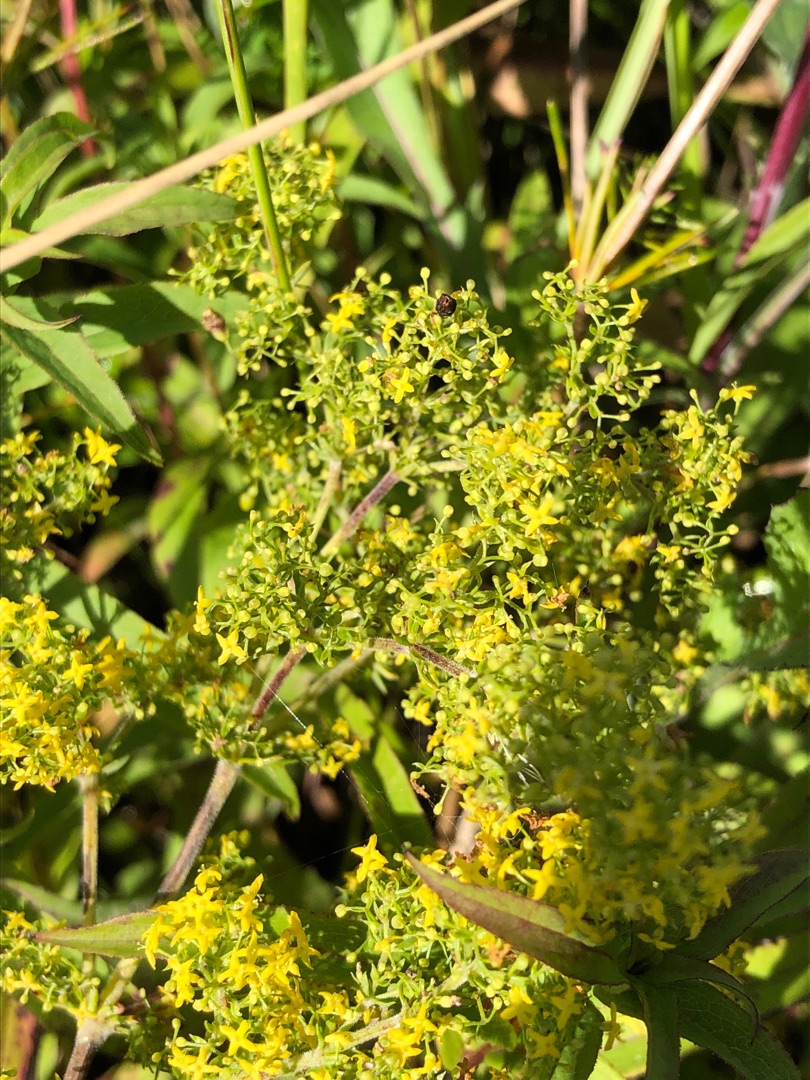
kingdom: Plantae
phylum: Tracheophyta
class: Magnoliopsida
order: Gentianales
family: Rubiaceae
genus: Galium
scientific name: Galium verum
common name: Gul snerre
